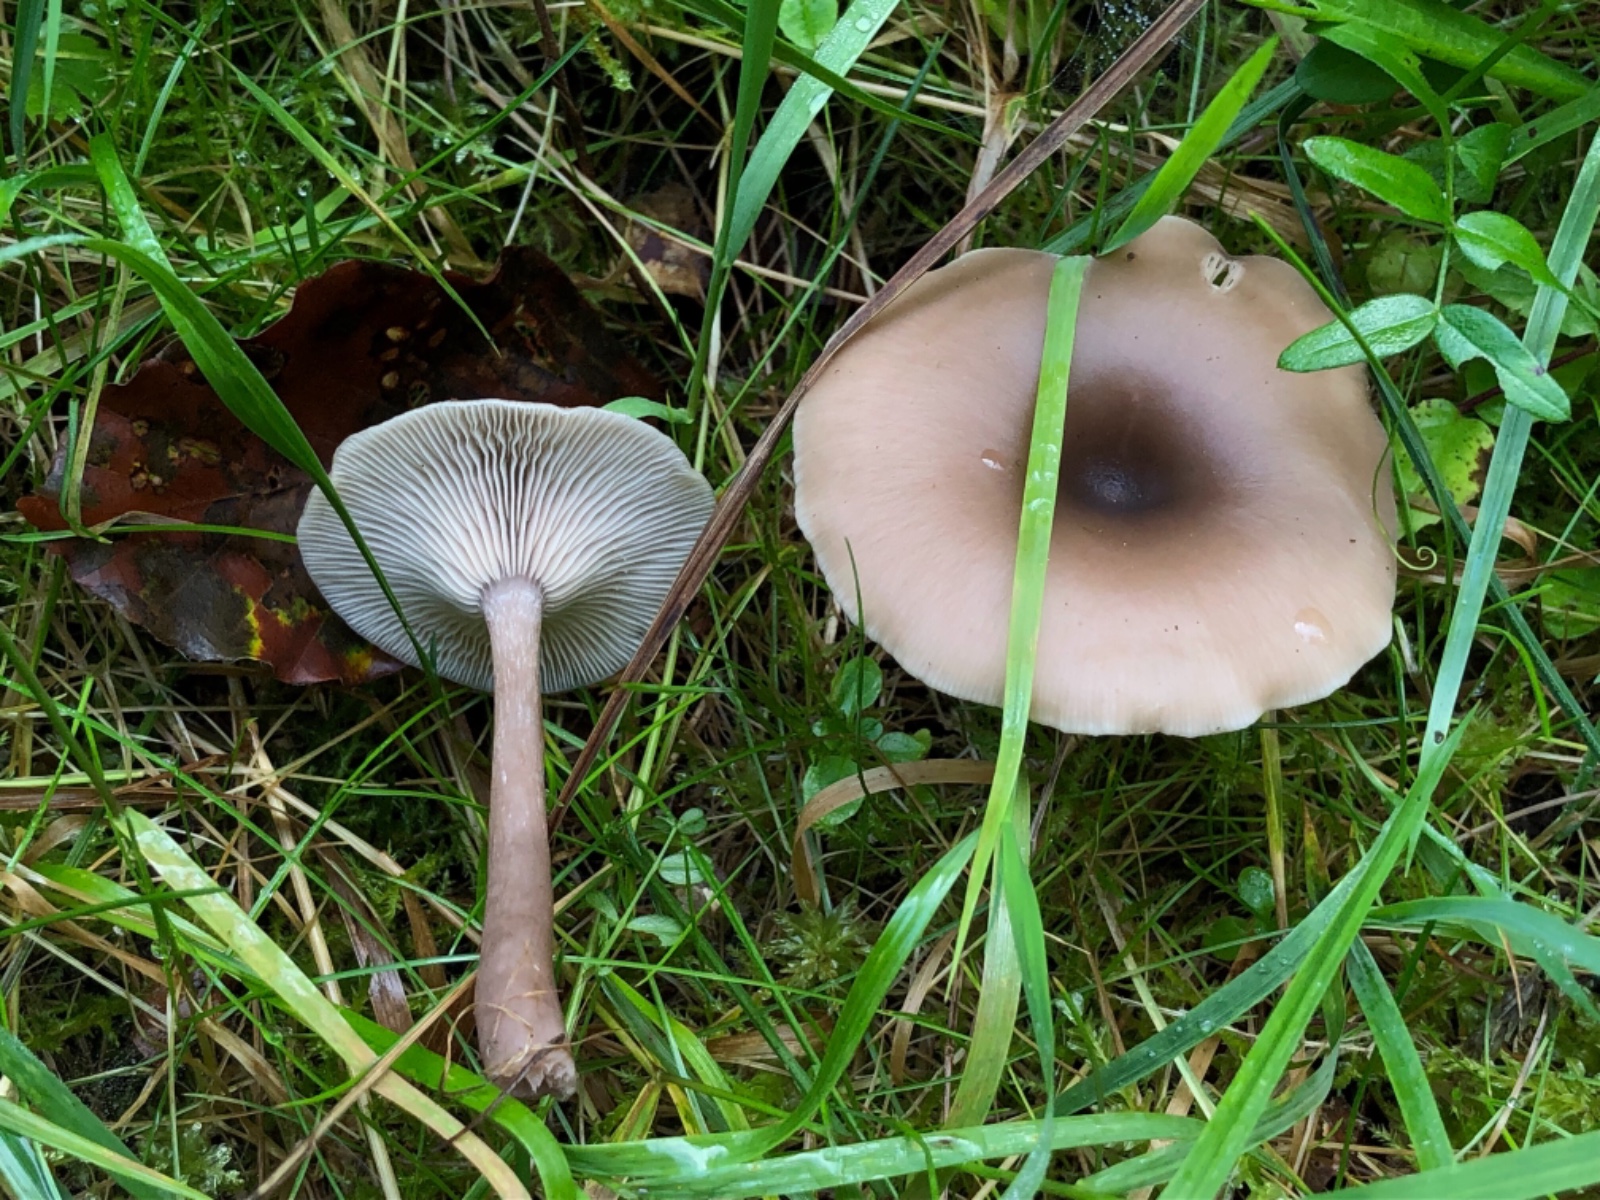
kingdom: Fungi
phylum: Basidiomycota
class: Agaricomycetes
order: Agaricales
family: Pseudoclitocybaceae
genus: Pseudoclitocybe
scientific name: Pseudoclitocybe cyathiformis
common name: almindelig bægertragthat
